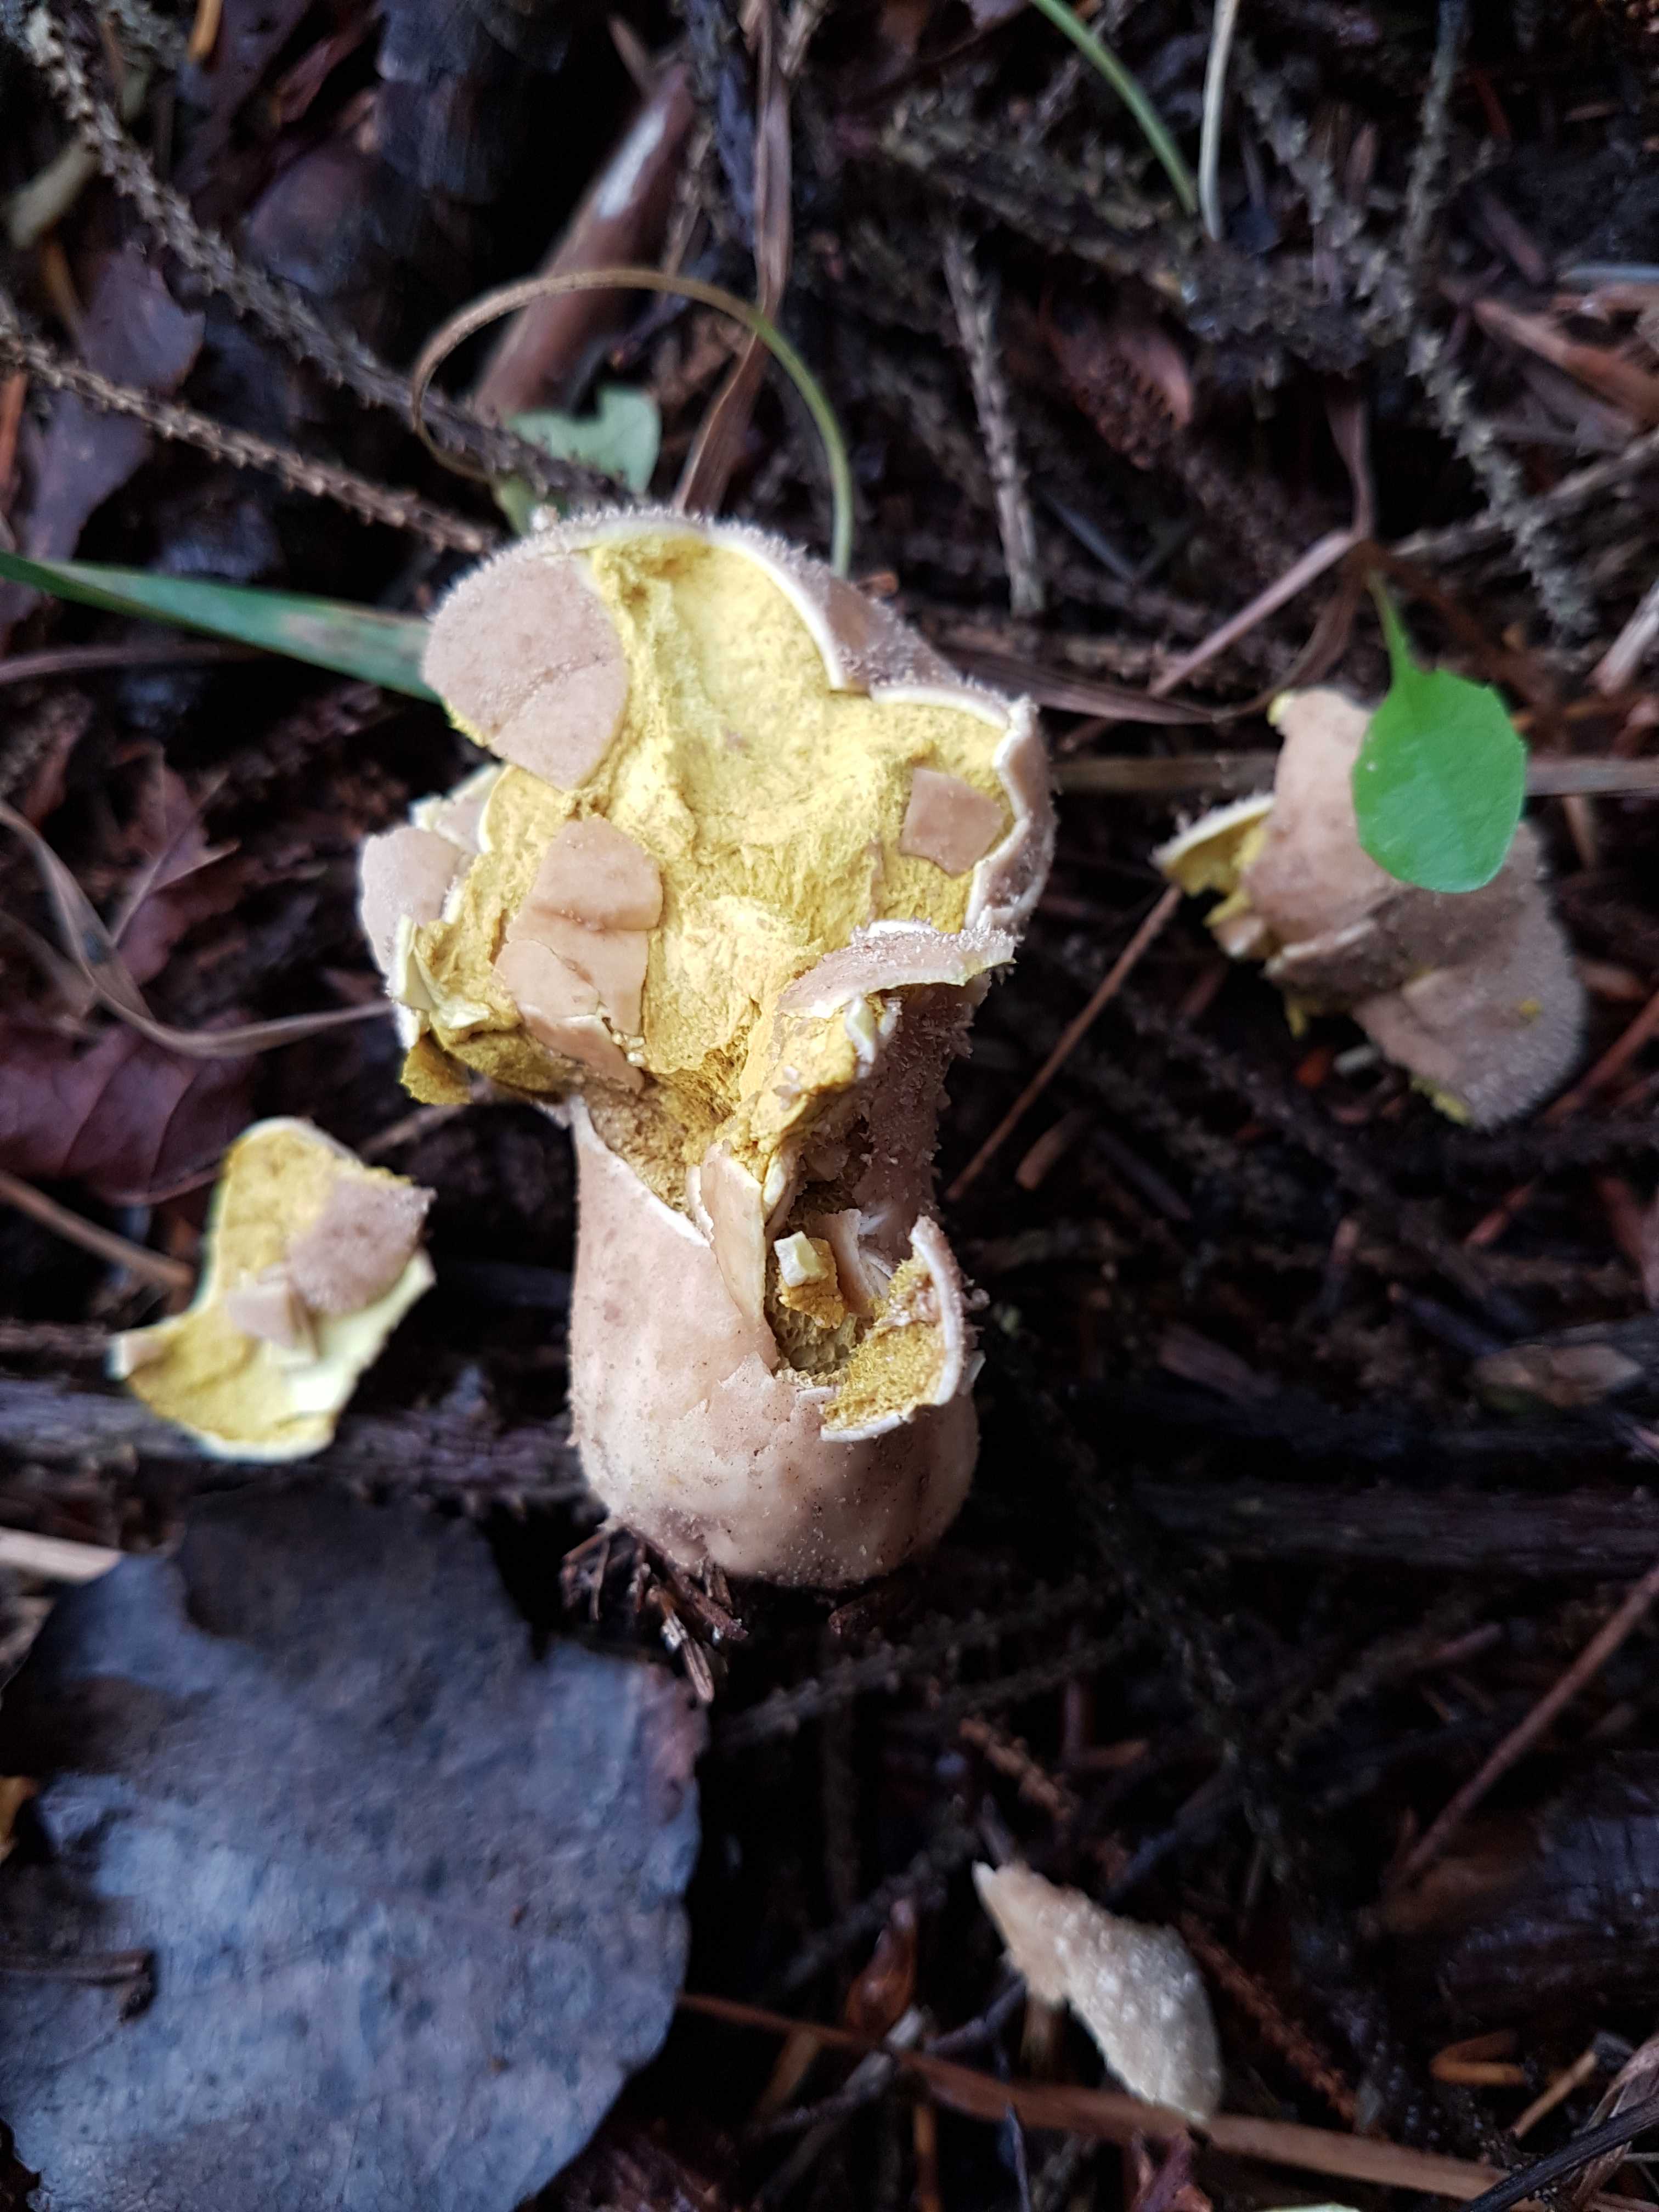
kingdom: Fungi
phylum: Basidiomycota
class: Agaricomycetes
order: Agaricales
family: Agaricaceae
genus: Lycoperdon
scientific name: Lycoperdon
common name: støvbold
